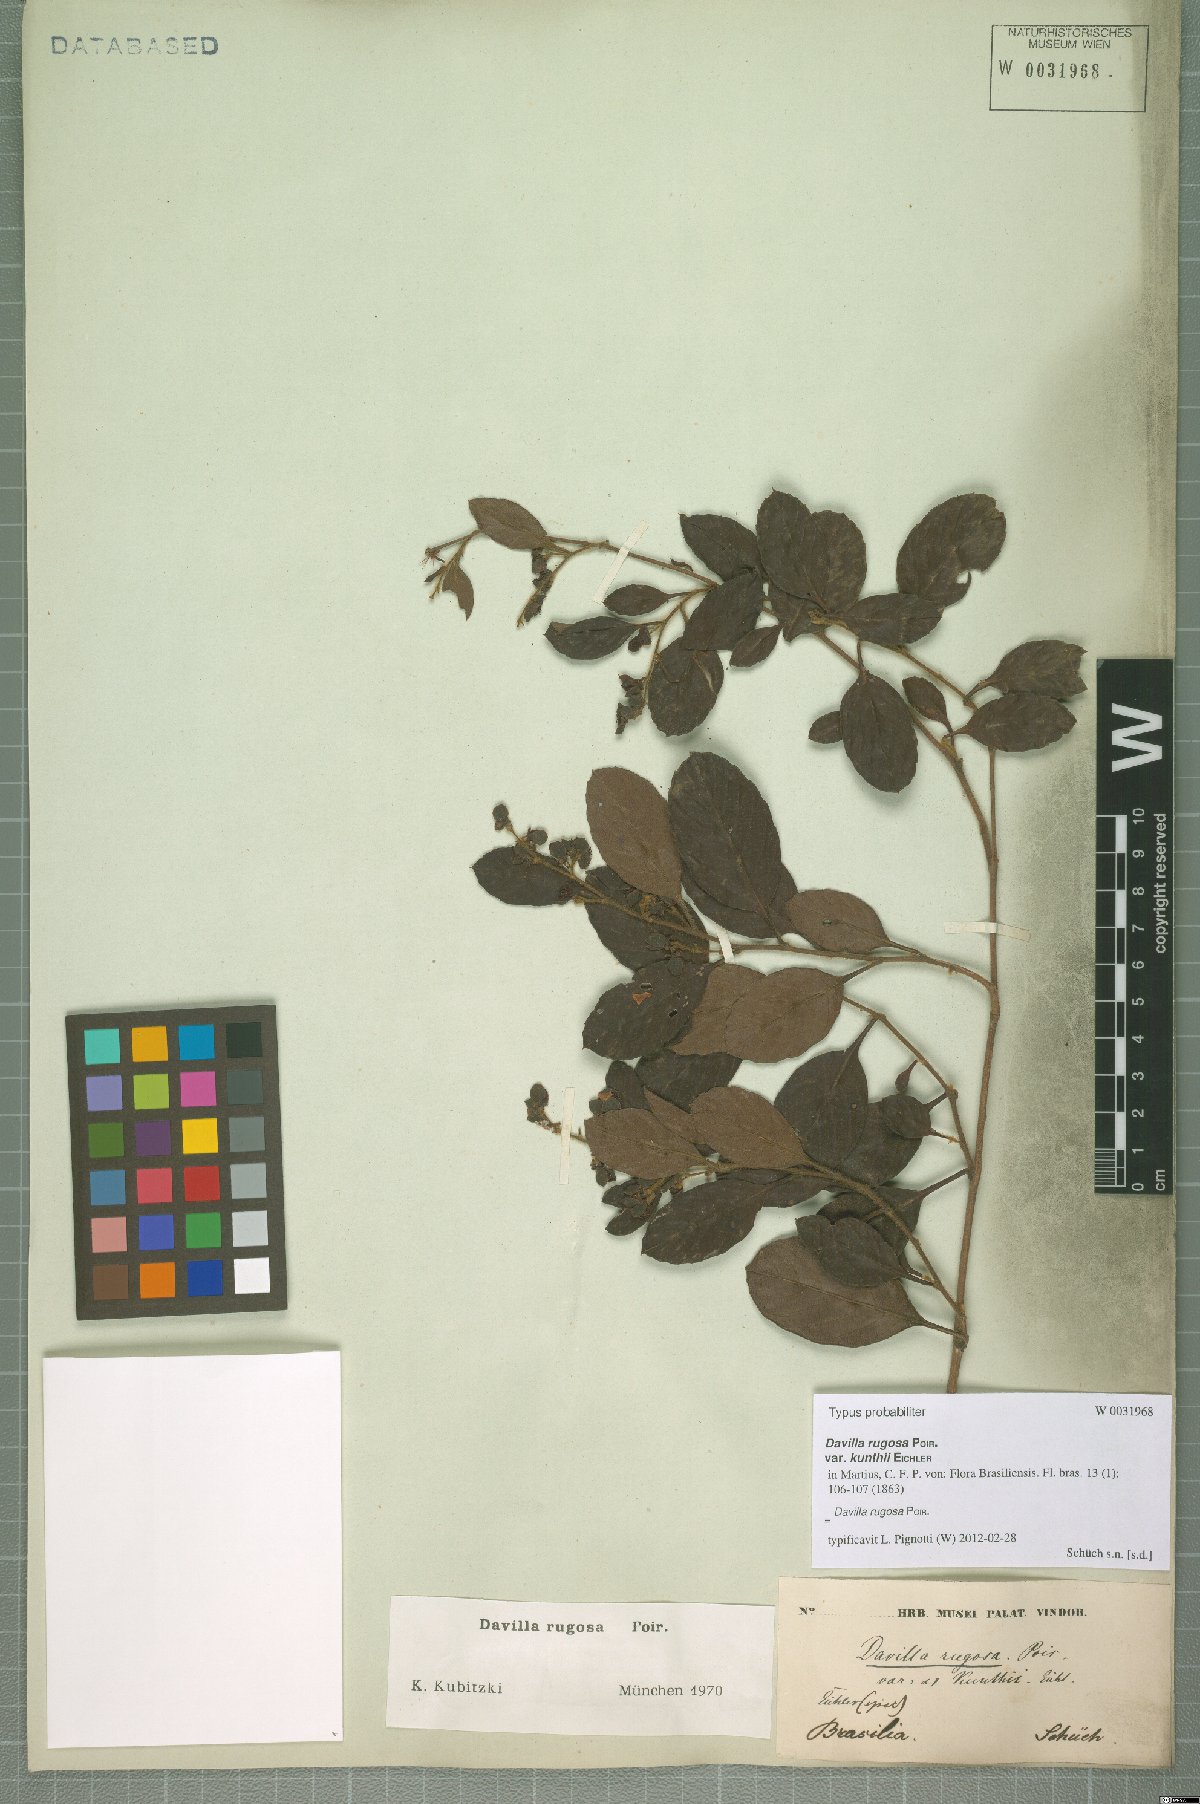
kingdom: Plantae
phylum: Tracheophyta
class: Magnoliopsida
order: Dilleniales
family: Dilleniaceae
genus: Davilla
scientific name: Davilla rugosa
